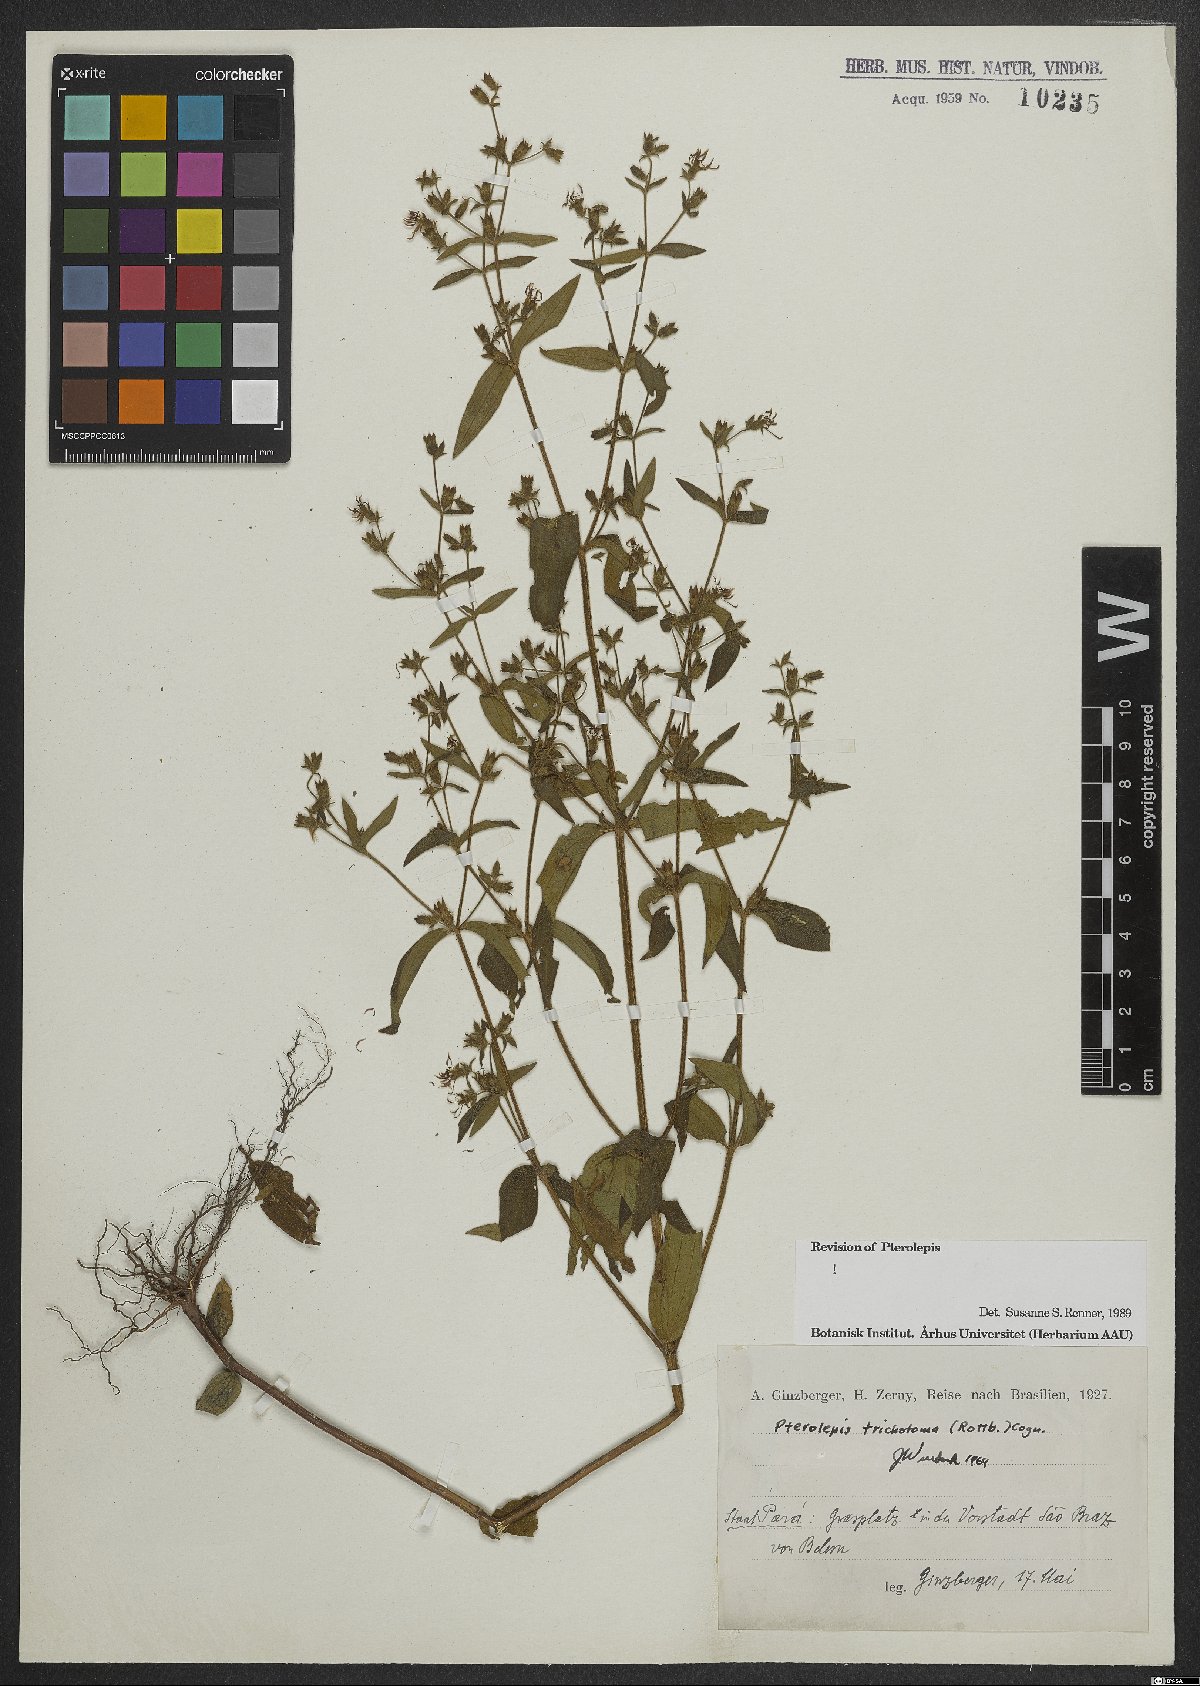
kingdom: Plantae
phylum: Tracheophyta
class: Magnoliopsida
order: Myrtales
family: Melastomataceae
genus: Pterolepis
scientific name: Pterolepis trichotoma
